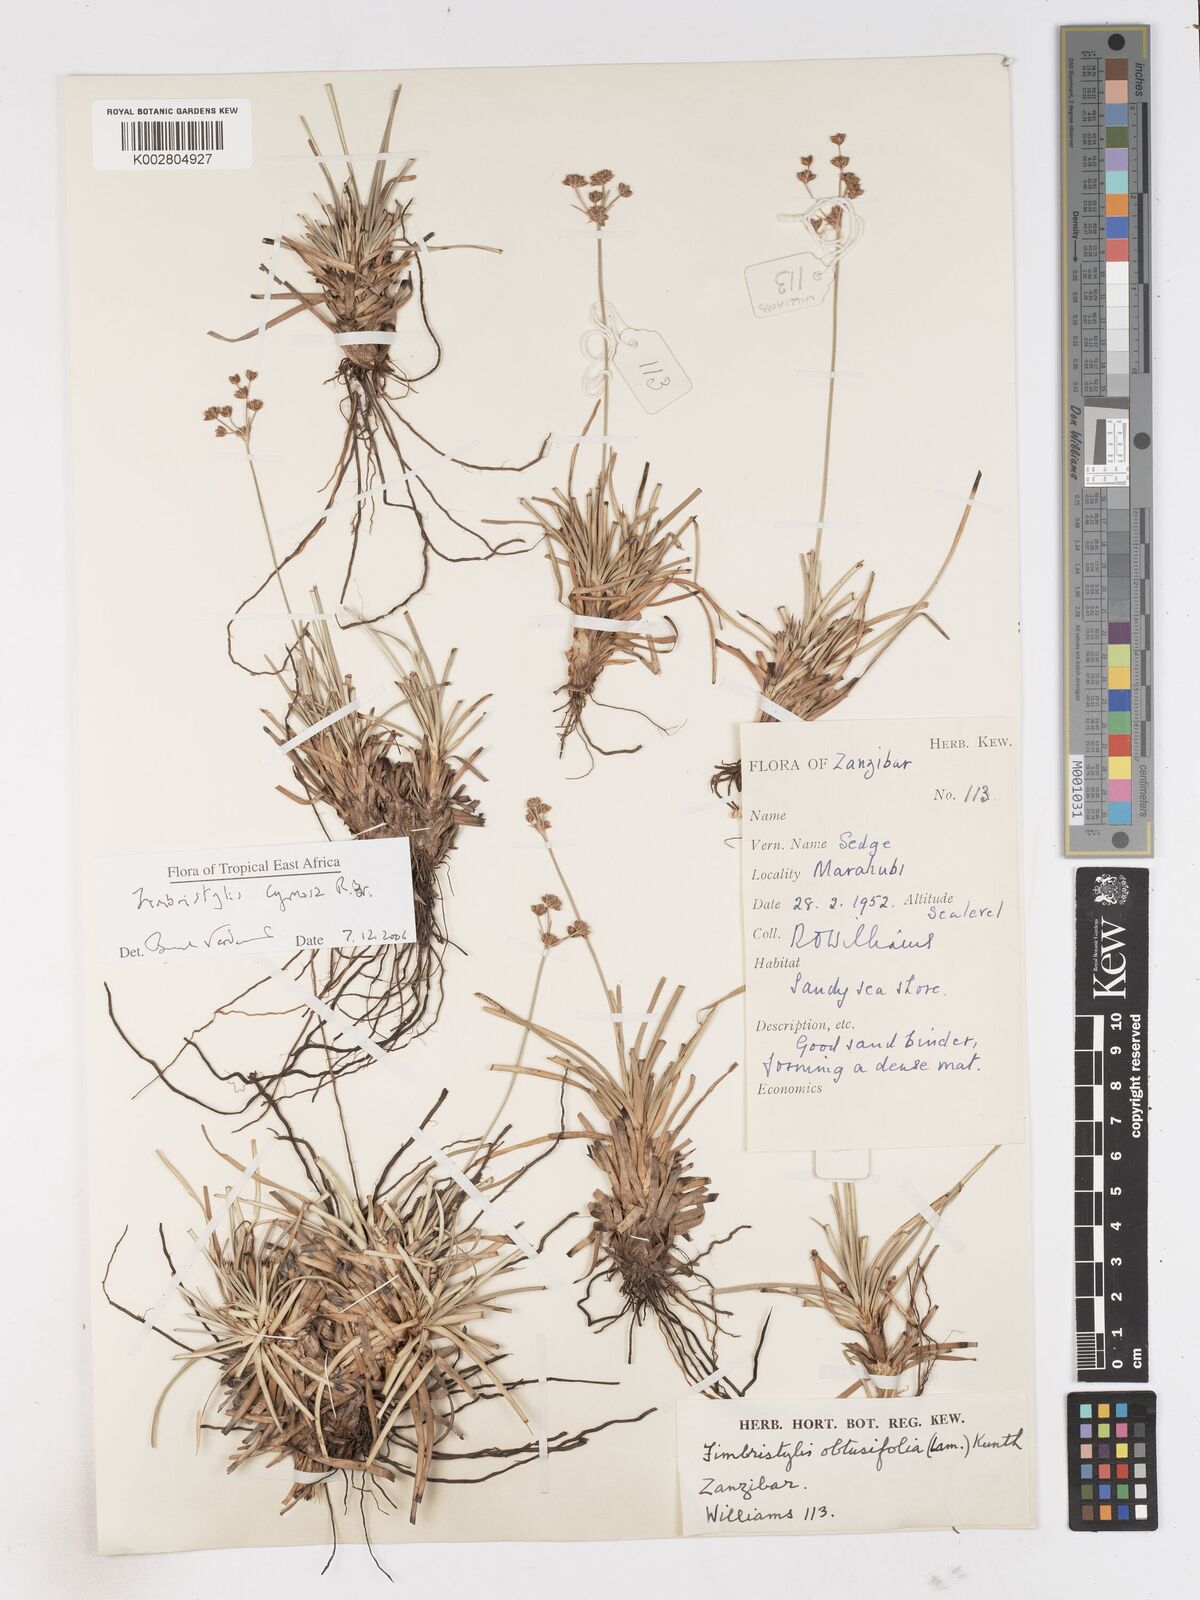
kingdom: Plantae
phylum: Tracheophyta
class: Liliopsida
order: Poales
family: Cyperaceae
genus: Fimbristylis
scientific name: Fimbristylis cymosa
